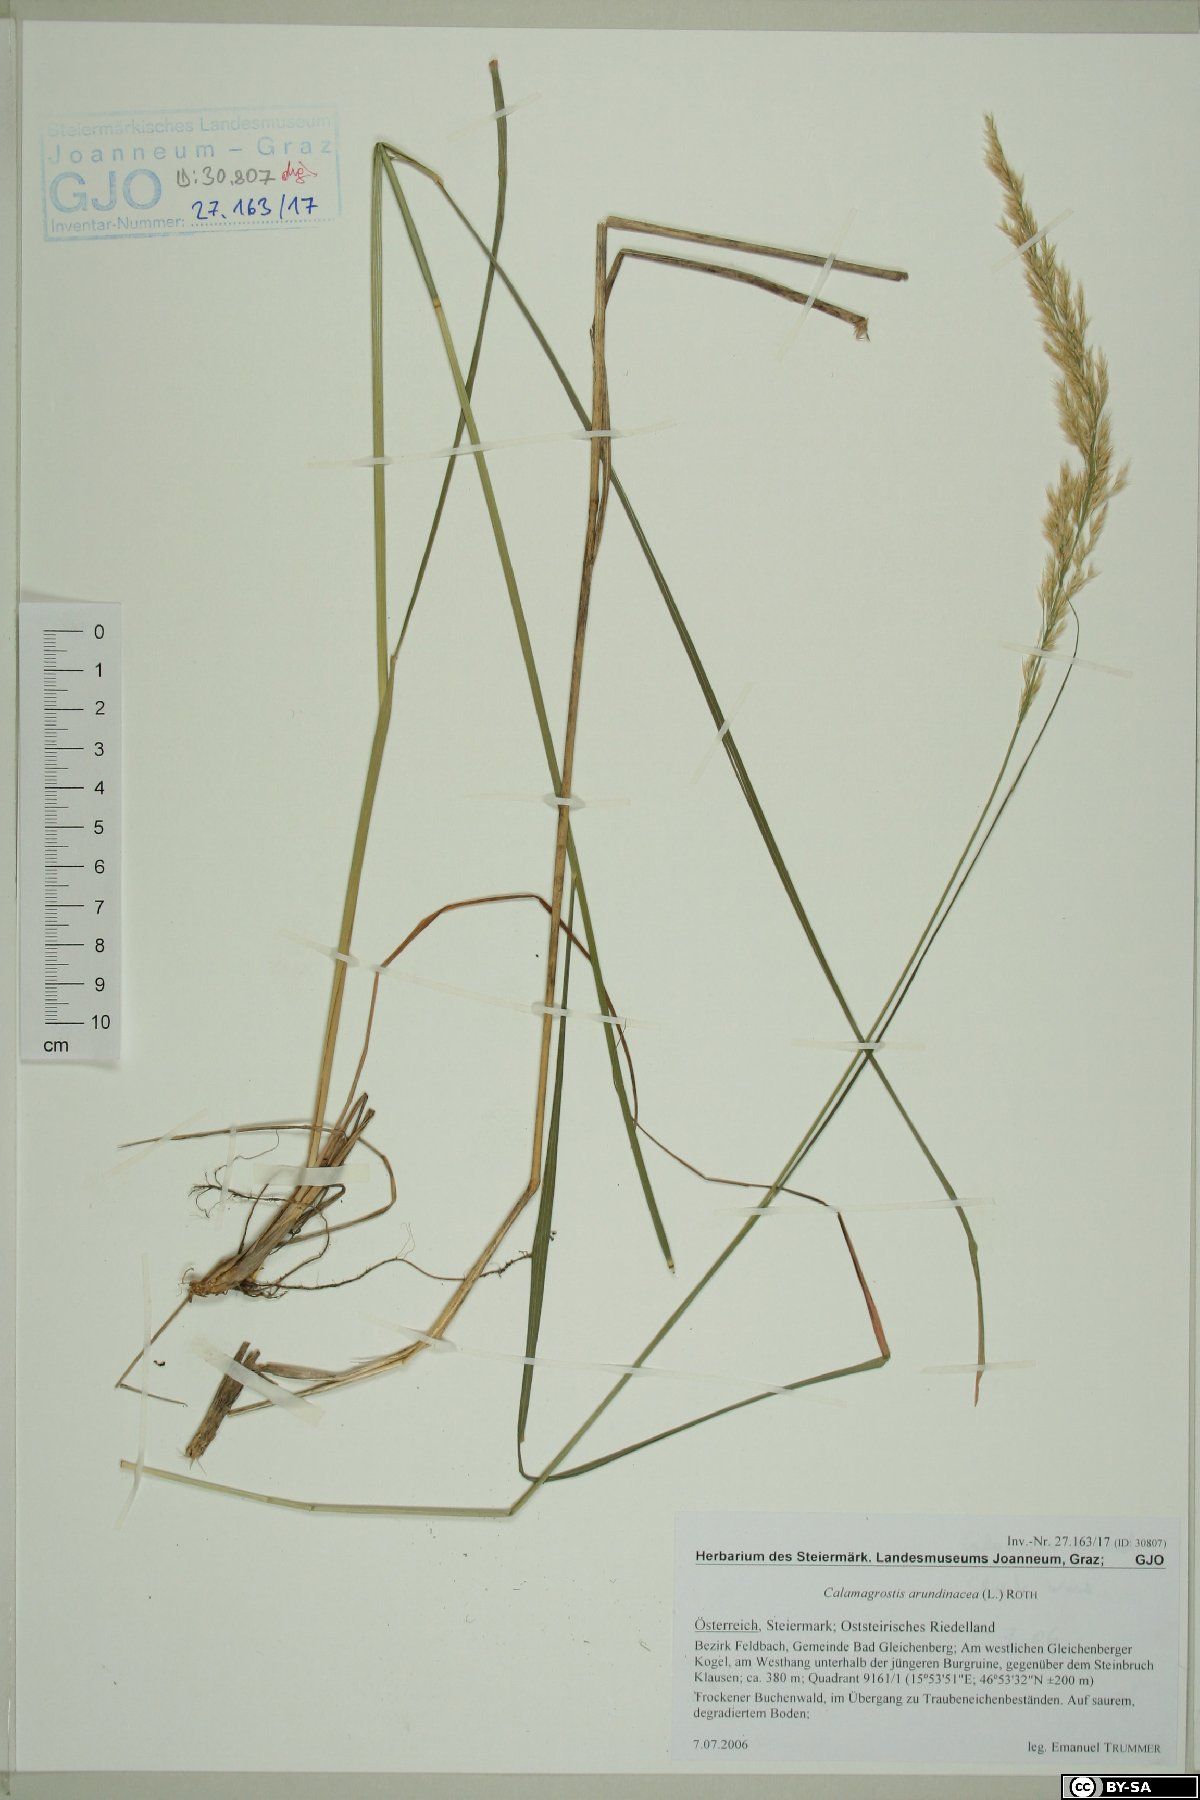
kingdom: Plantae
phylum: Tracheophyta
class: Liliopsida
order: Poales
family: Poaceae
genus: Calamagrostis
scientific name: Calamagrostis arundinacea
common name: Metskastik
